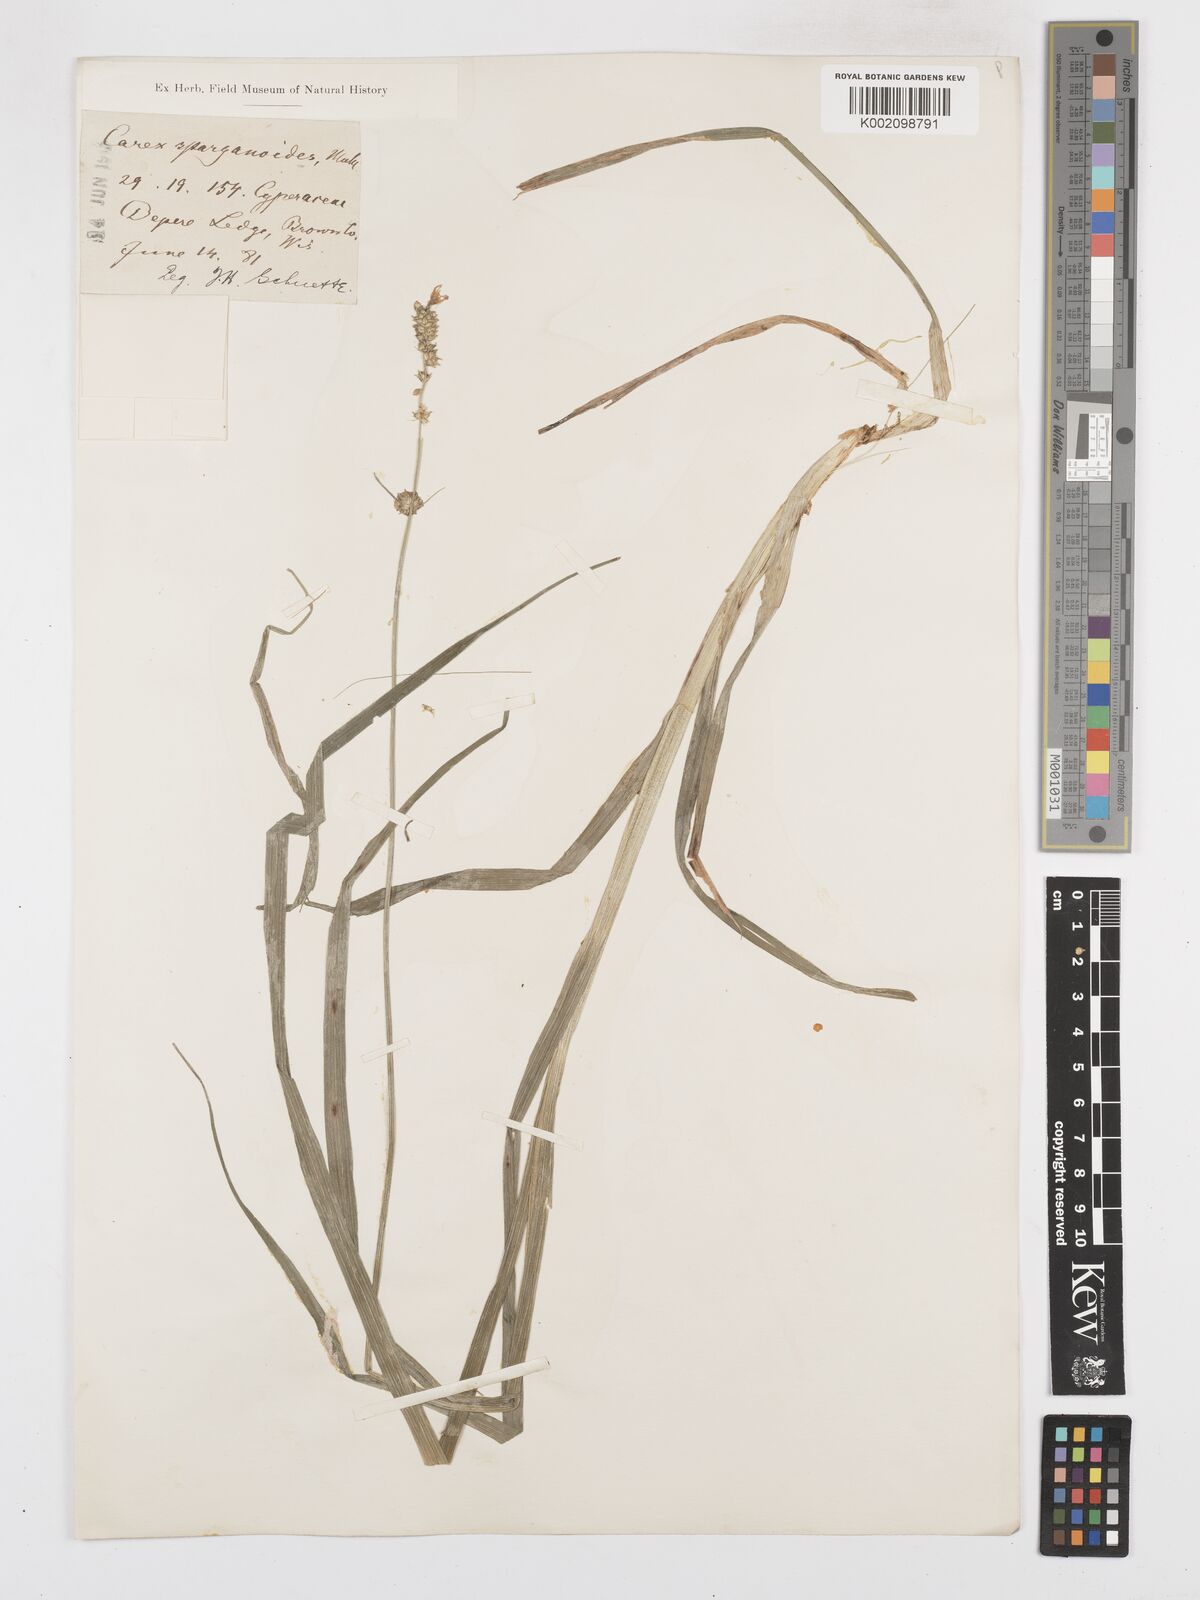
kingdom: Plantae
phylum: Tracheophyta
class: Liliopsida
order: Poales
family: Cyperaceae
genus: Carex
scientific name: Carex sparganioides
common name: Burreed sedge
